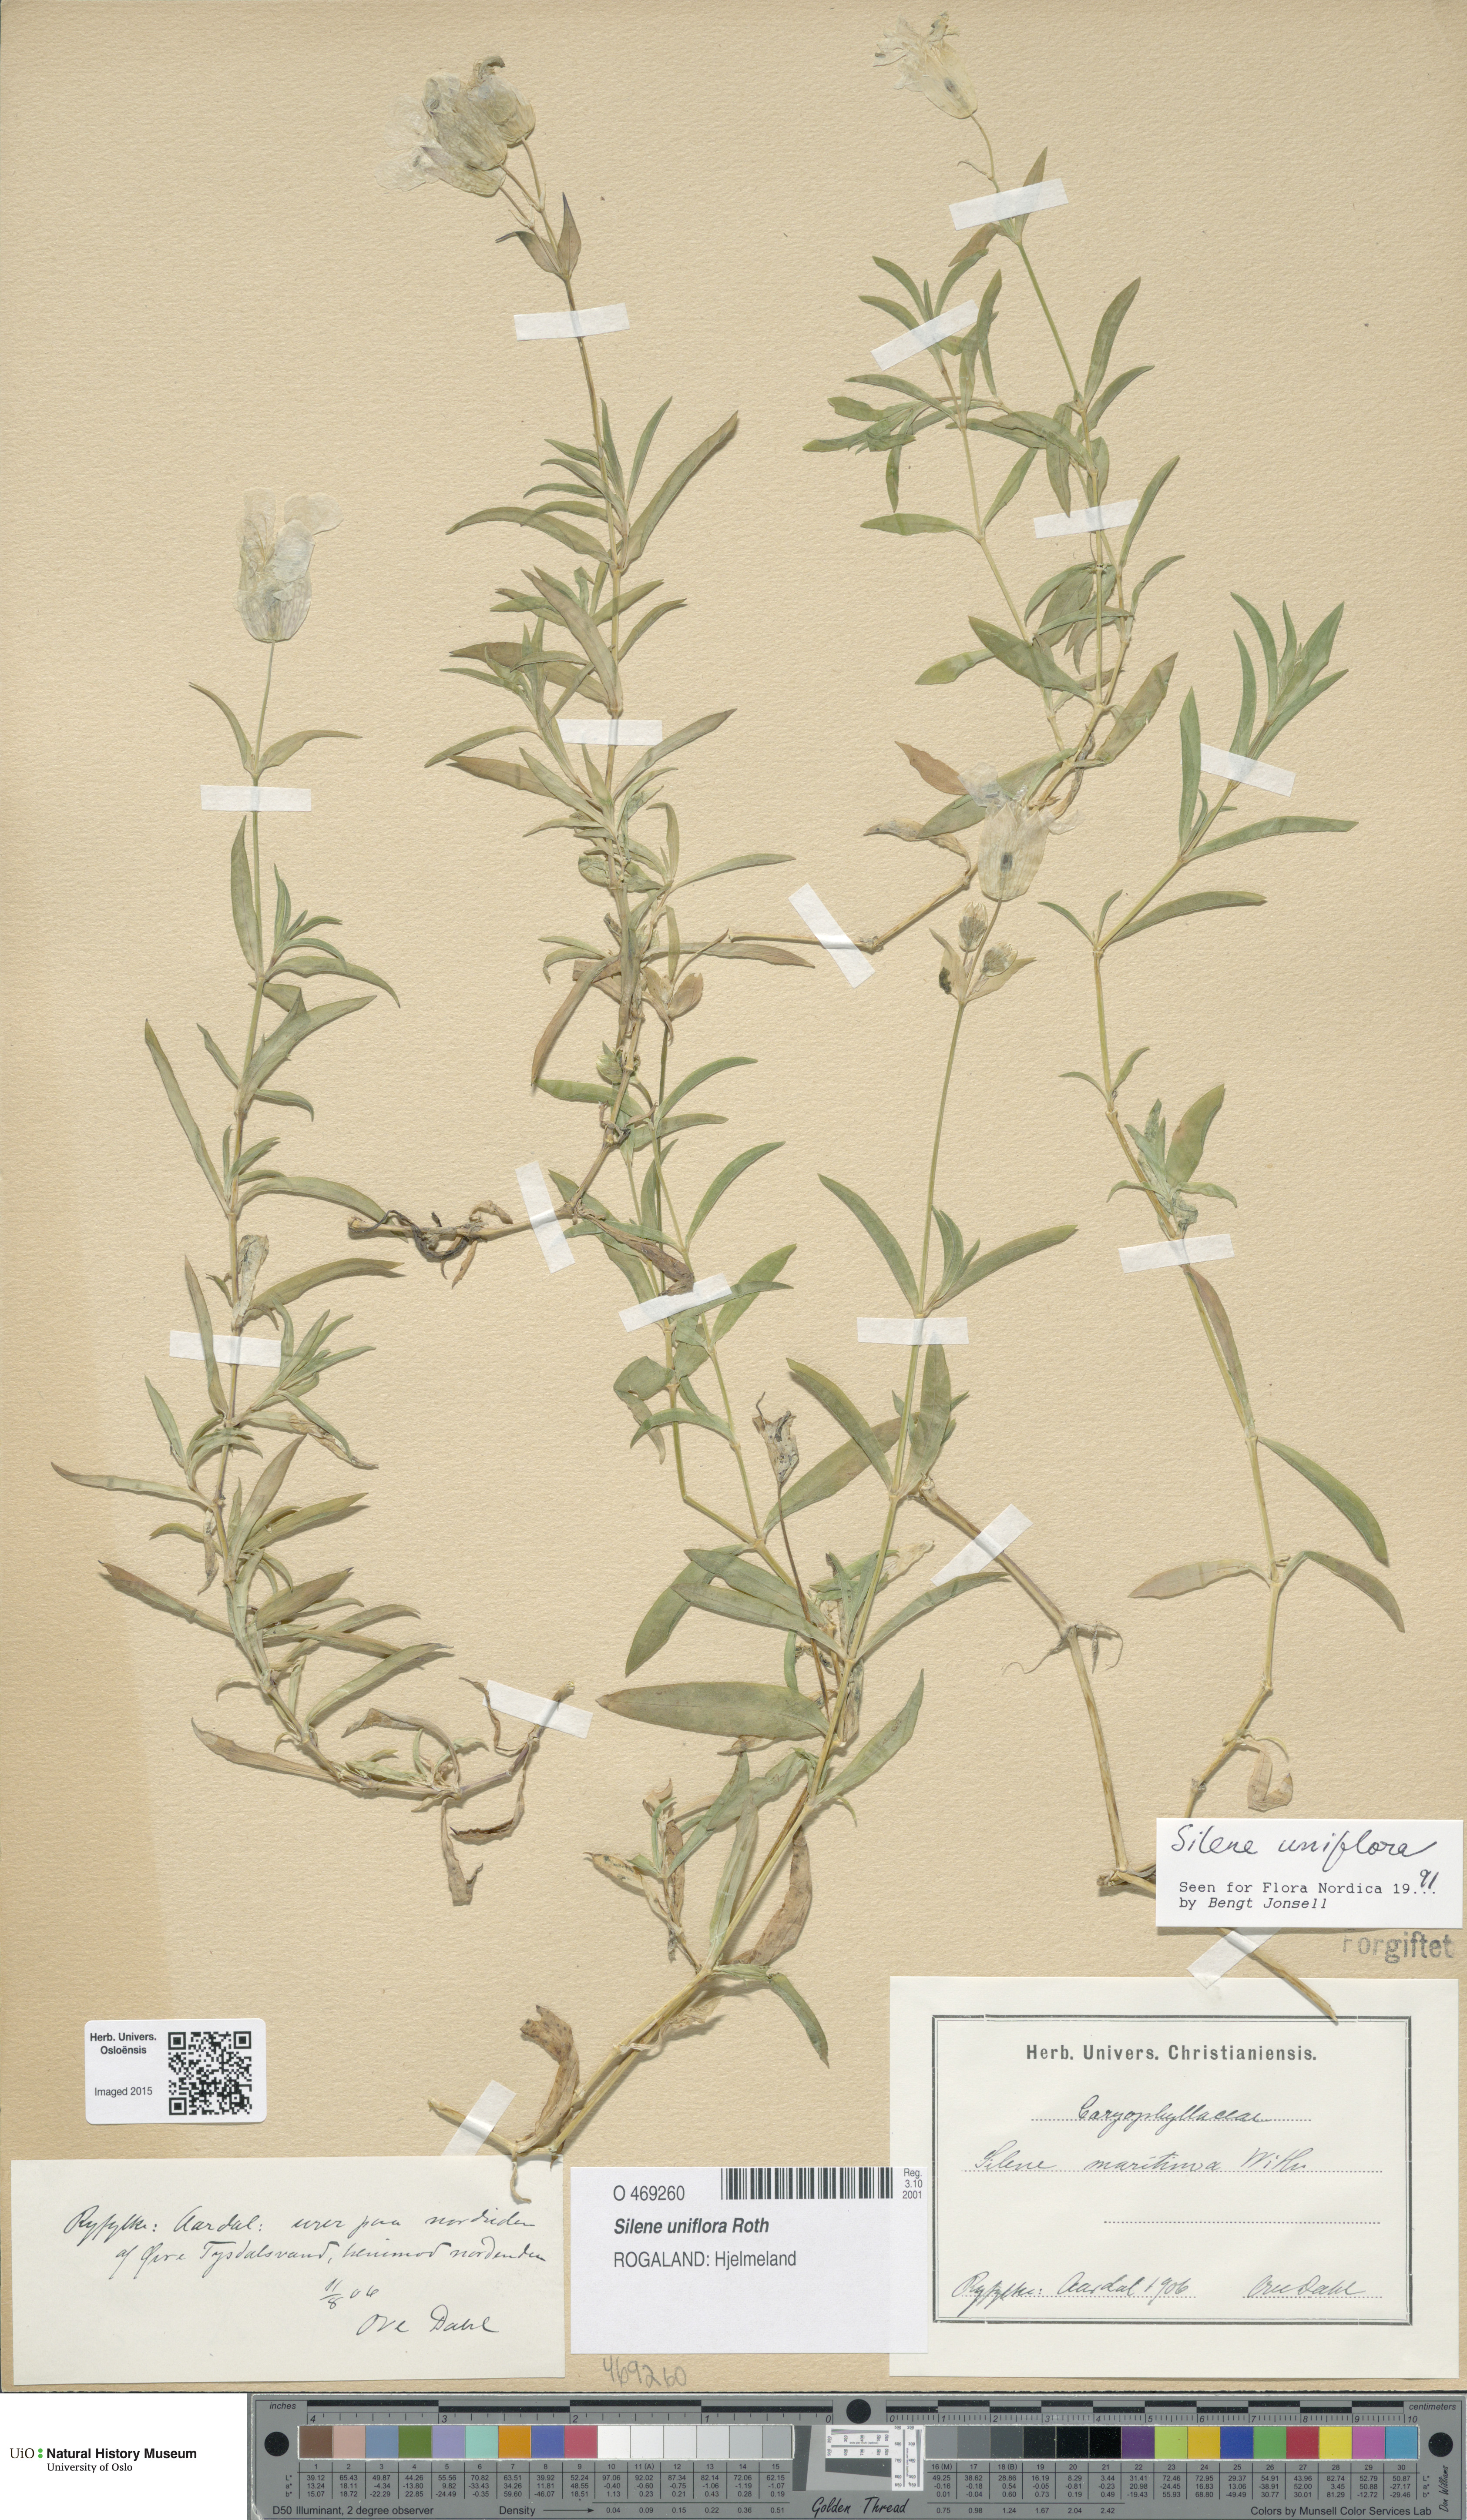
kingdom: Plantae
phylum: Tracheophyta
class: Magnoliopsida
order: Caryophyllales
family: Caryophyllaceae
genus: Silene
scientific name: Silene uniflora
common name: Sea campion
